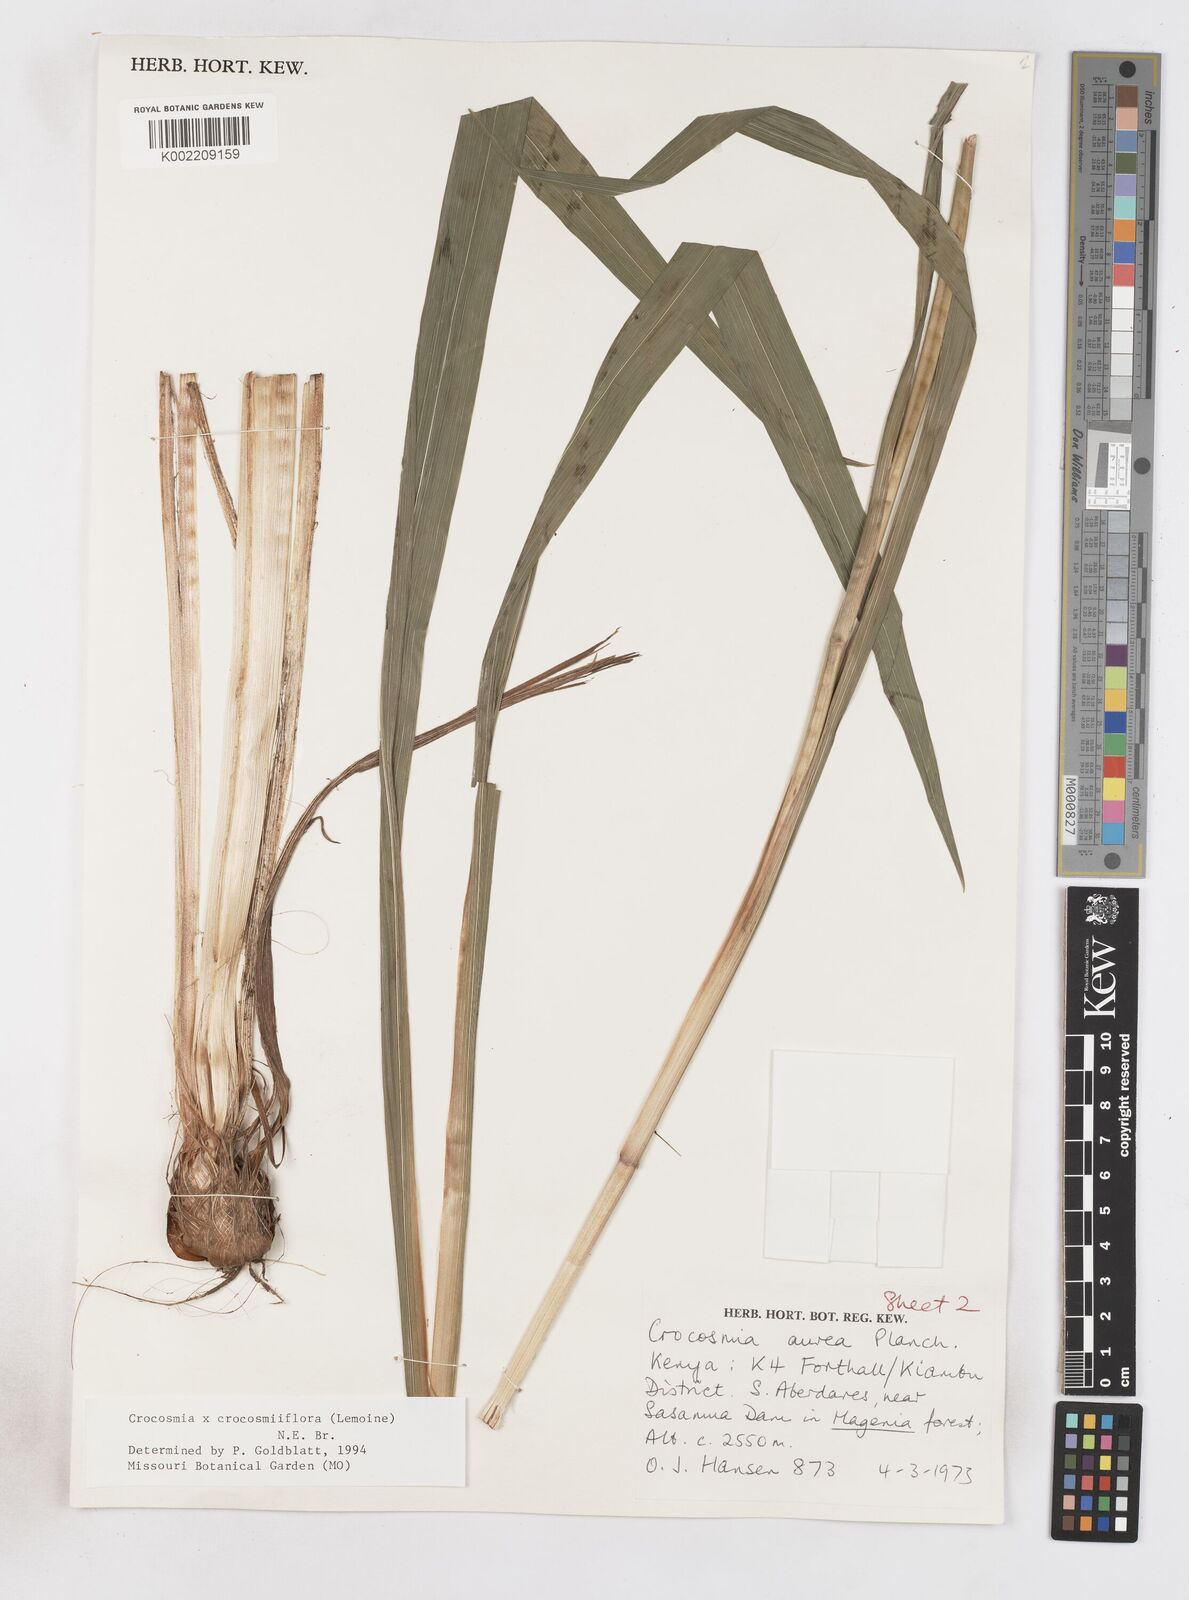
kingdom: Plantae
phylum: Tracheophyta
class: Liliopsida
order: Asparagales
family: Iridaceae
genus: Crocosmia
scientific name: Crocosmia aurea
